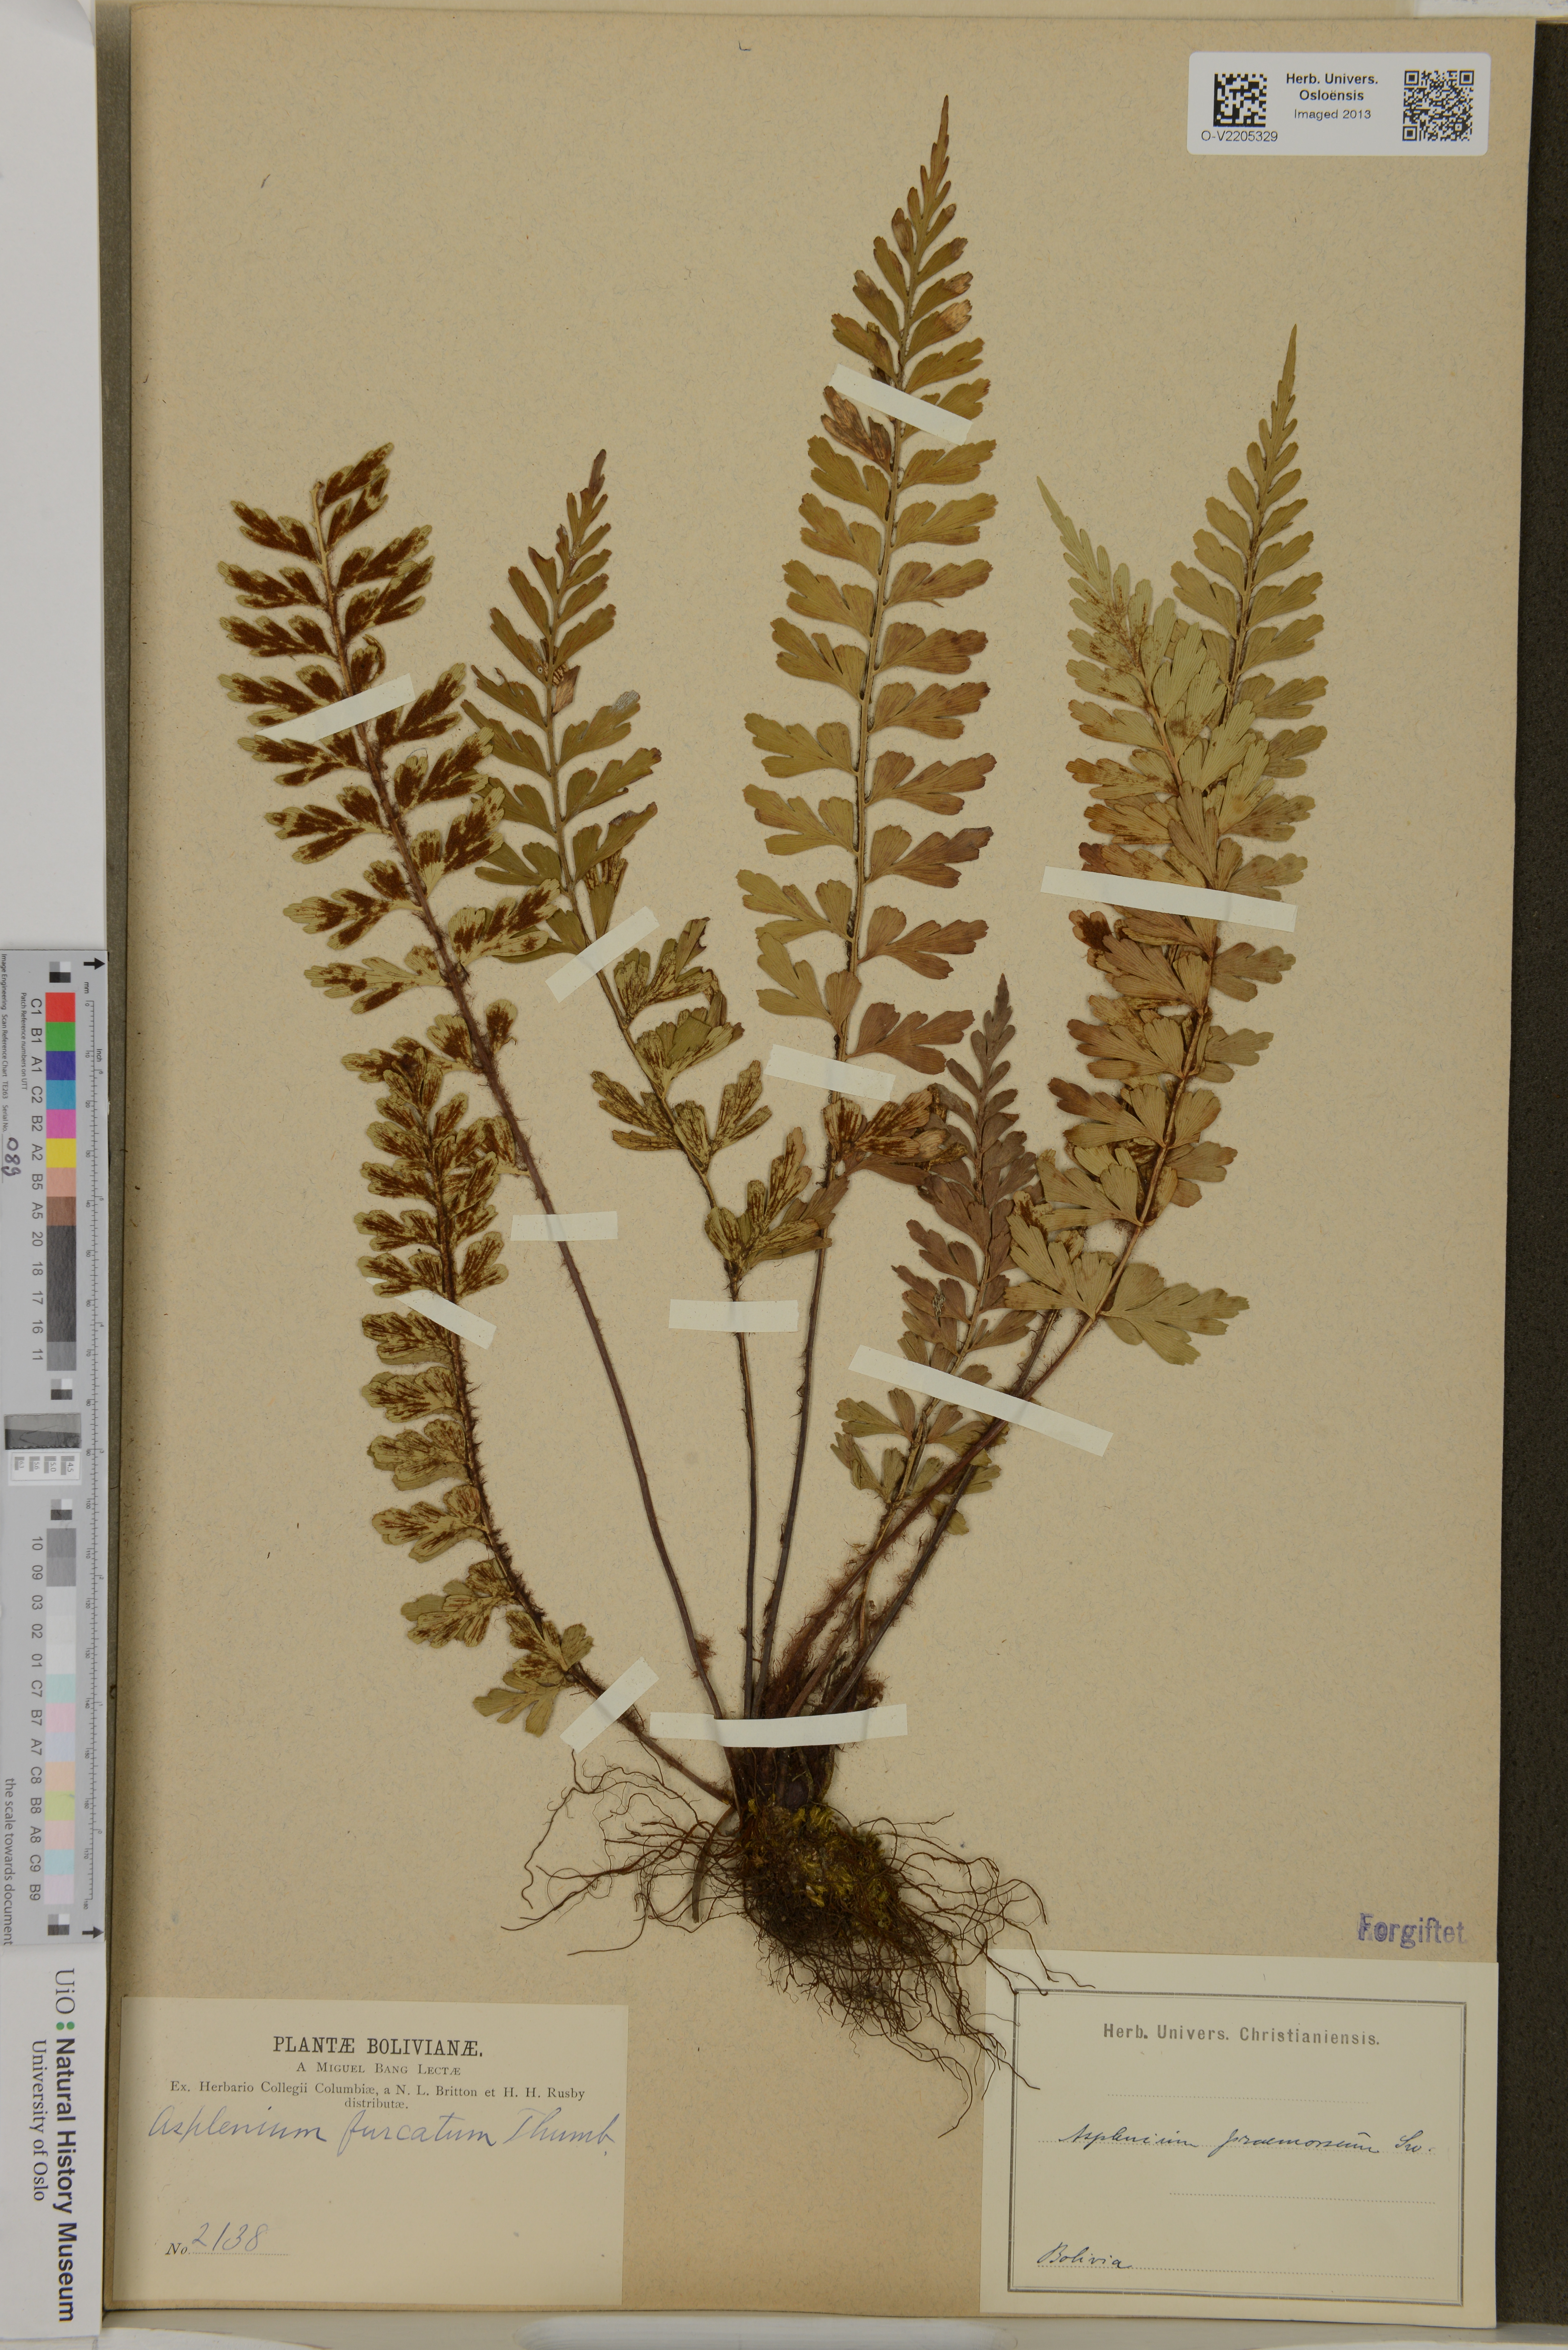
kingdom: Plantae
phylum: Tracheophyta
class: Polypodiopsida
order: Polypodiales
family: Aspleniaceae
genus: Asplenium
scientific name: Asplenium praemorsum
